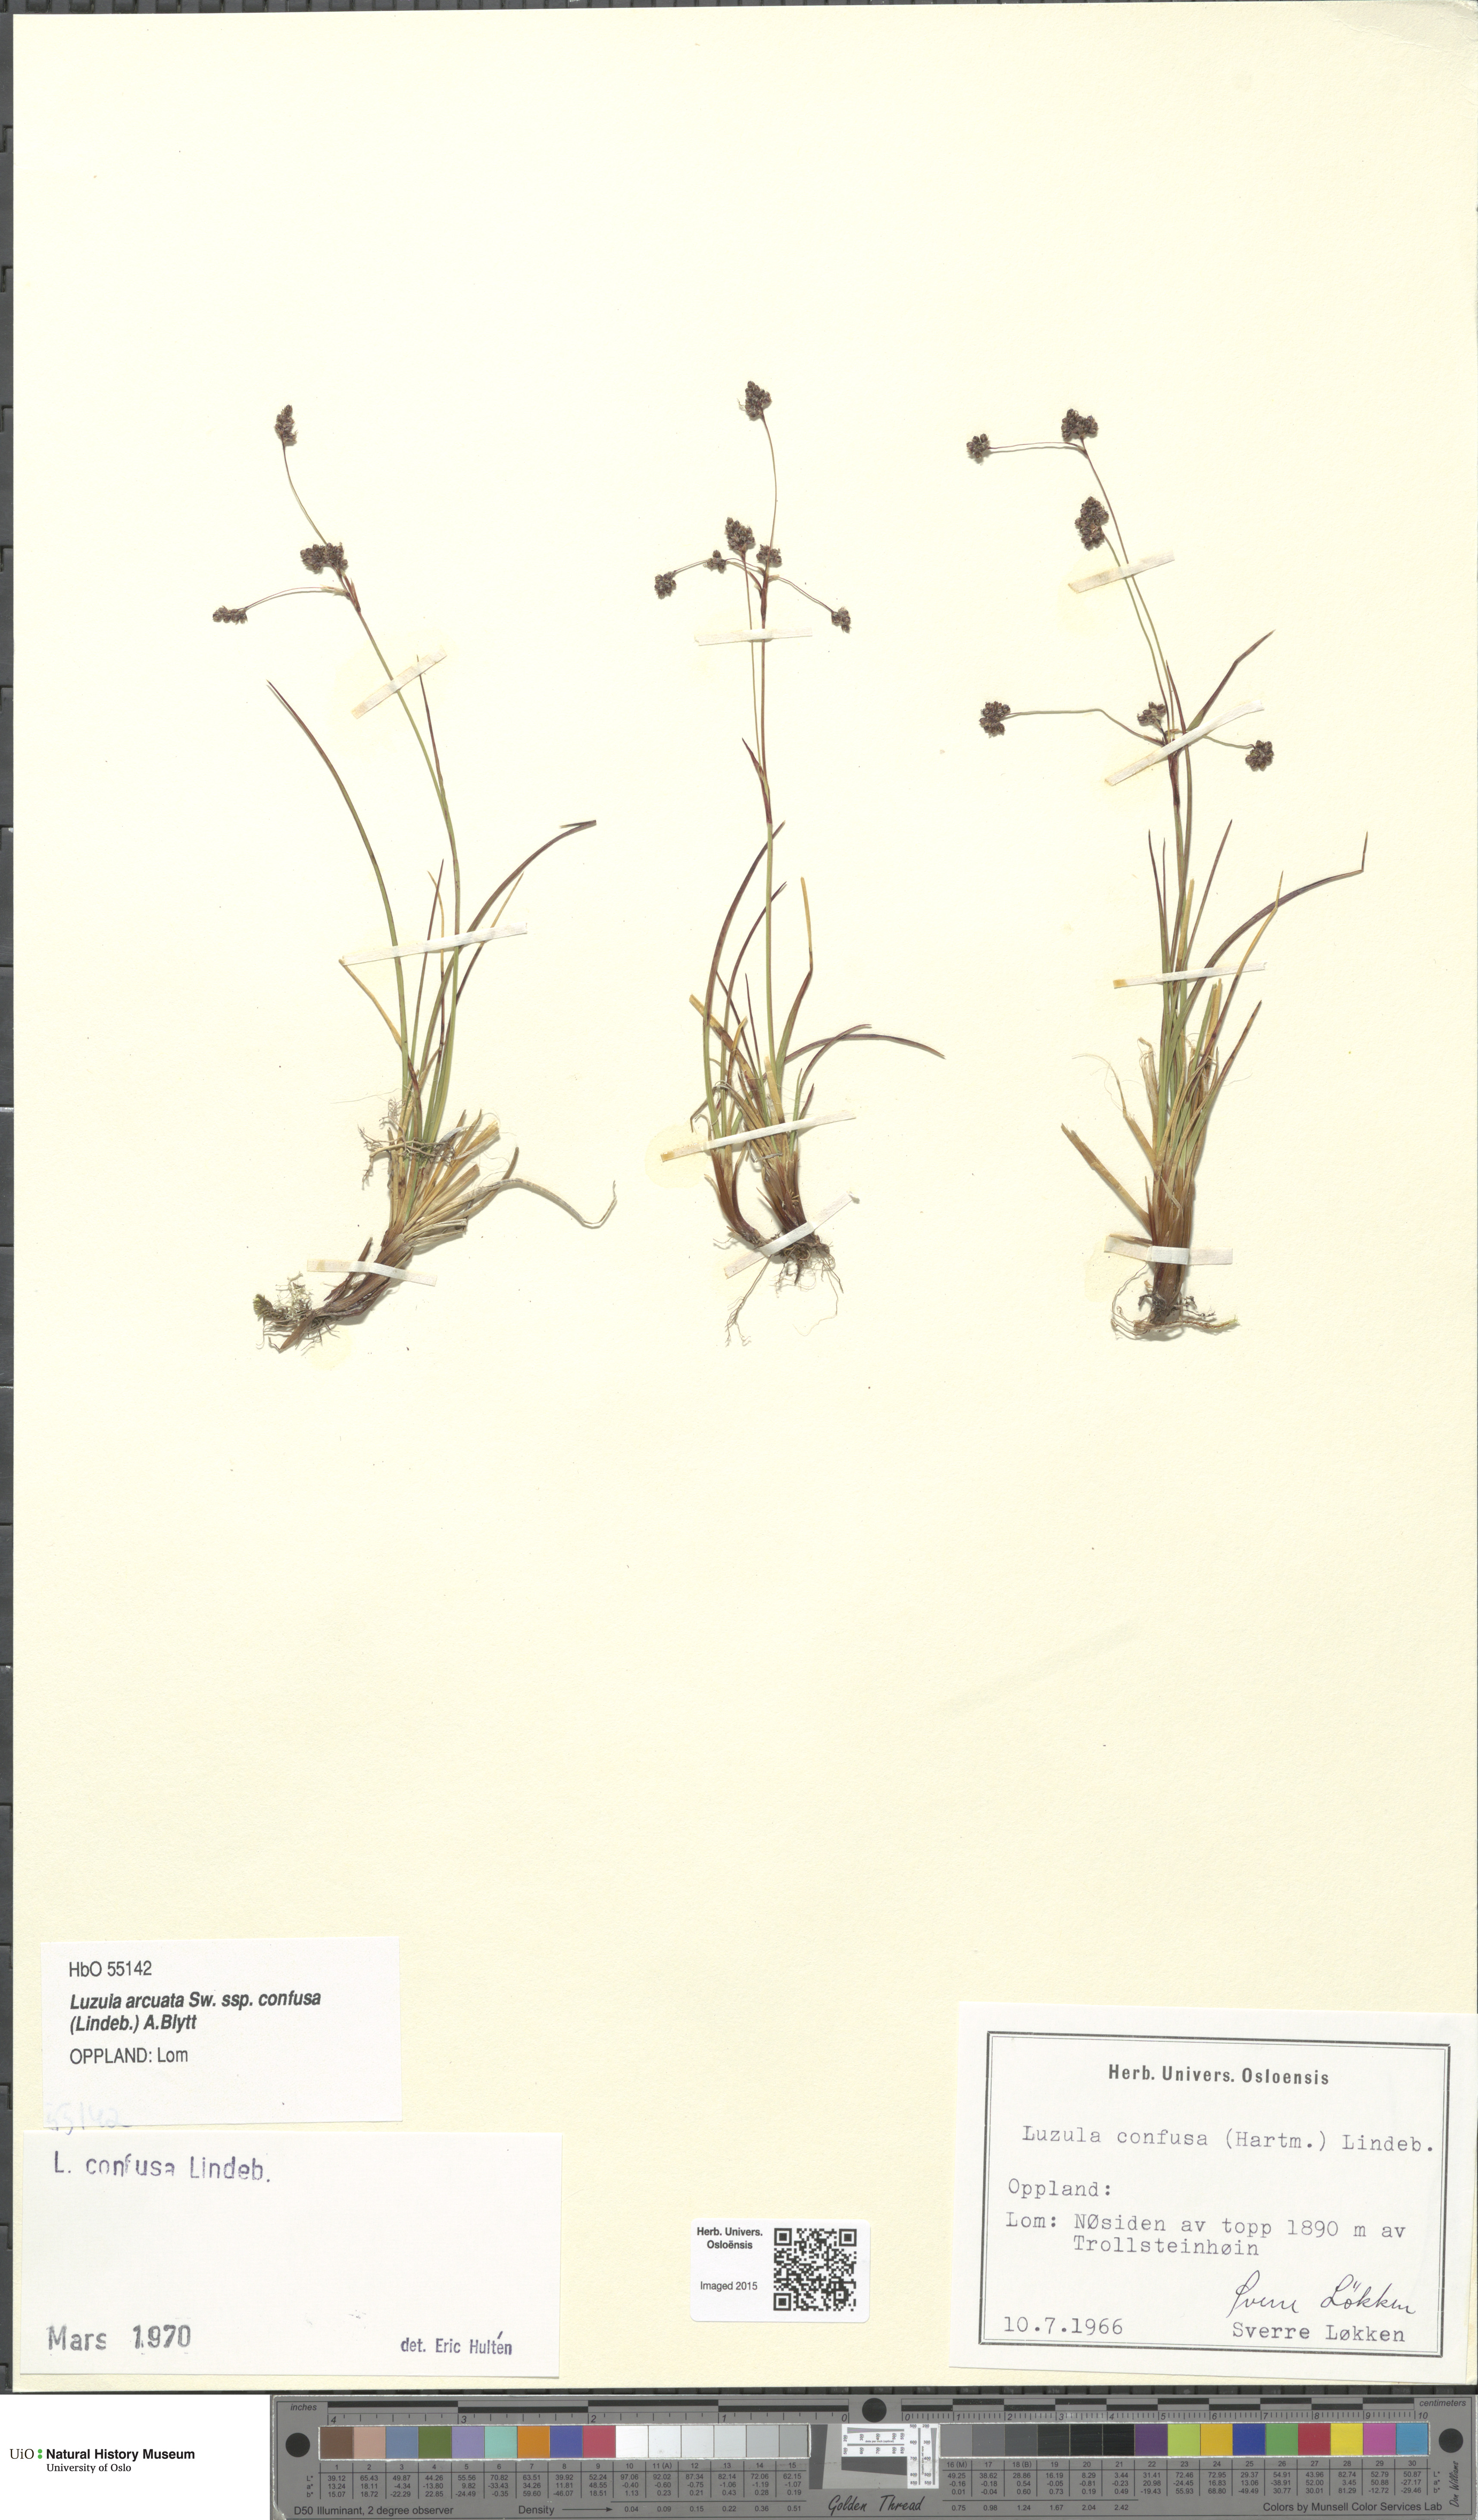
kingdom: Plantae
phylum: Tracheophyta
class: Liliopsida
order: Poales
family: Juncaceae
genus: Luzula
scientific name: Luzula confusa
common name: Northern wood rush
